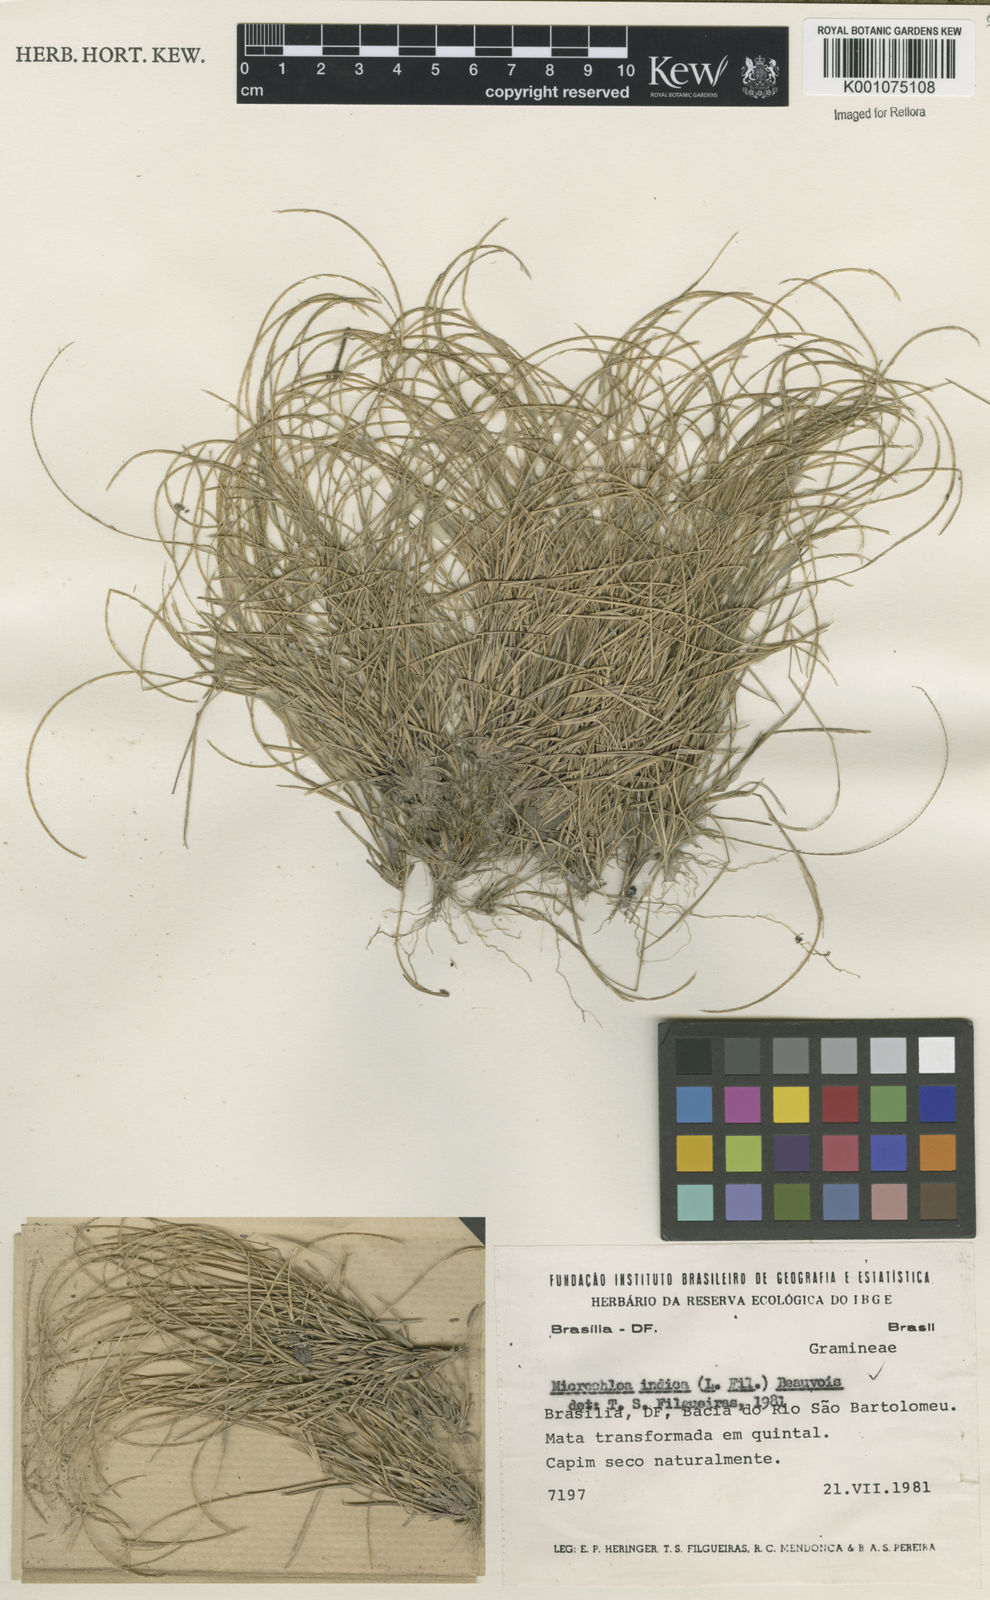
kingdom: Plantae
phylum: Tracheophyta
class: Liliopsida
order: Poales
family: Poaceae
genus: Microchloa
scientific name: Microchloa indica
